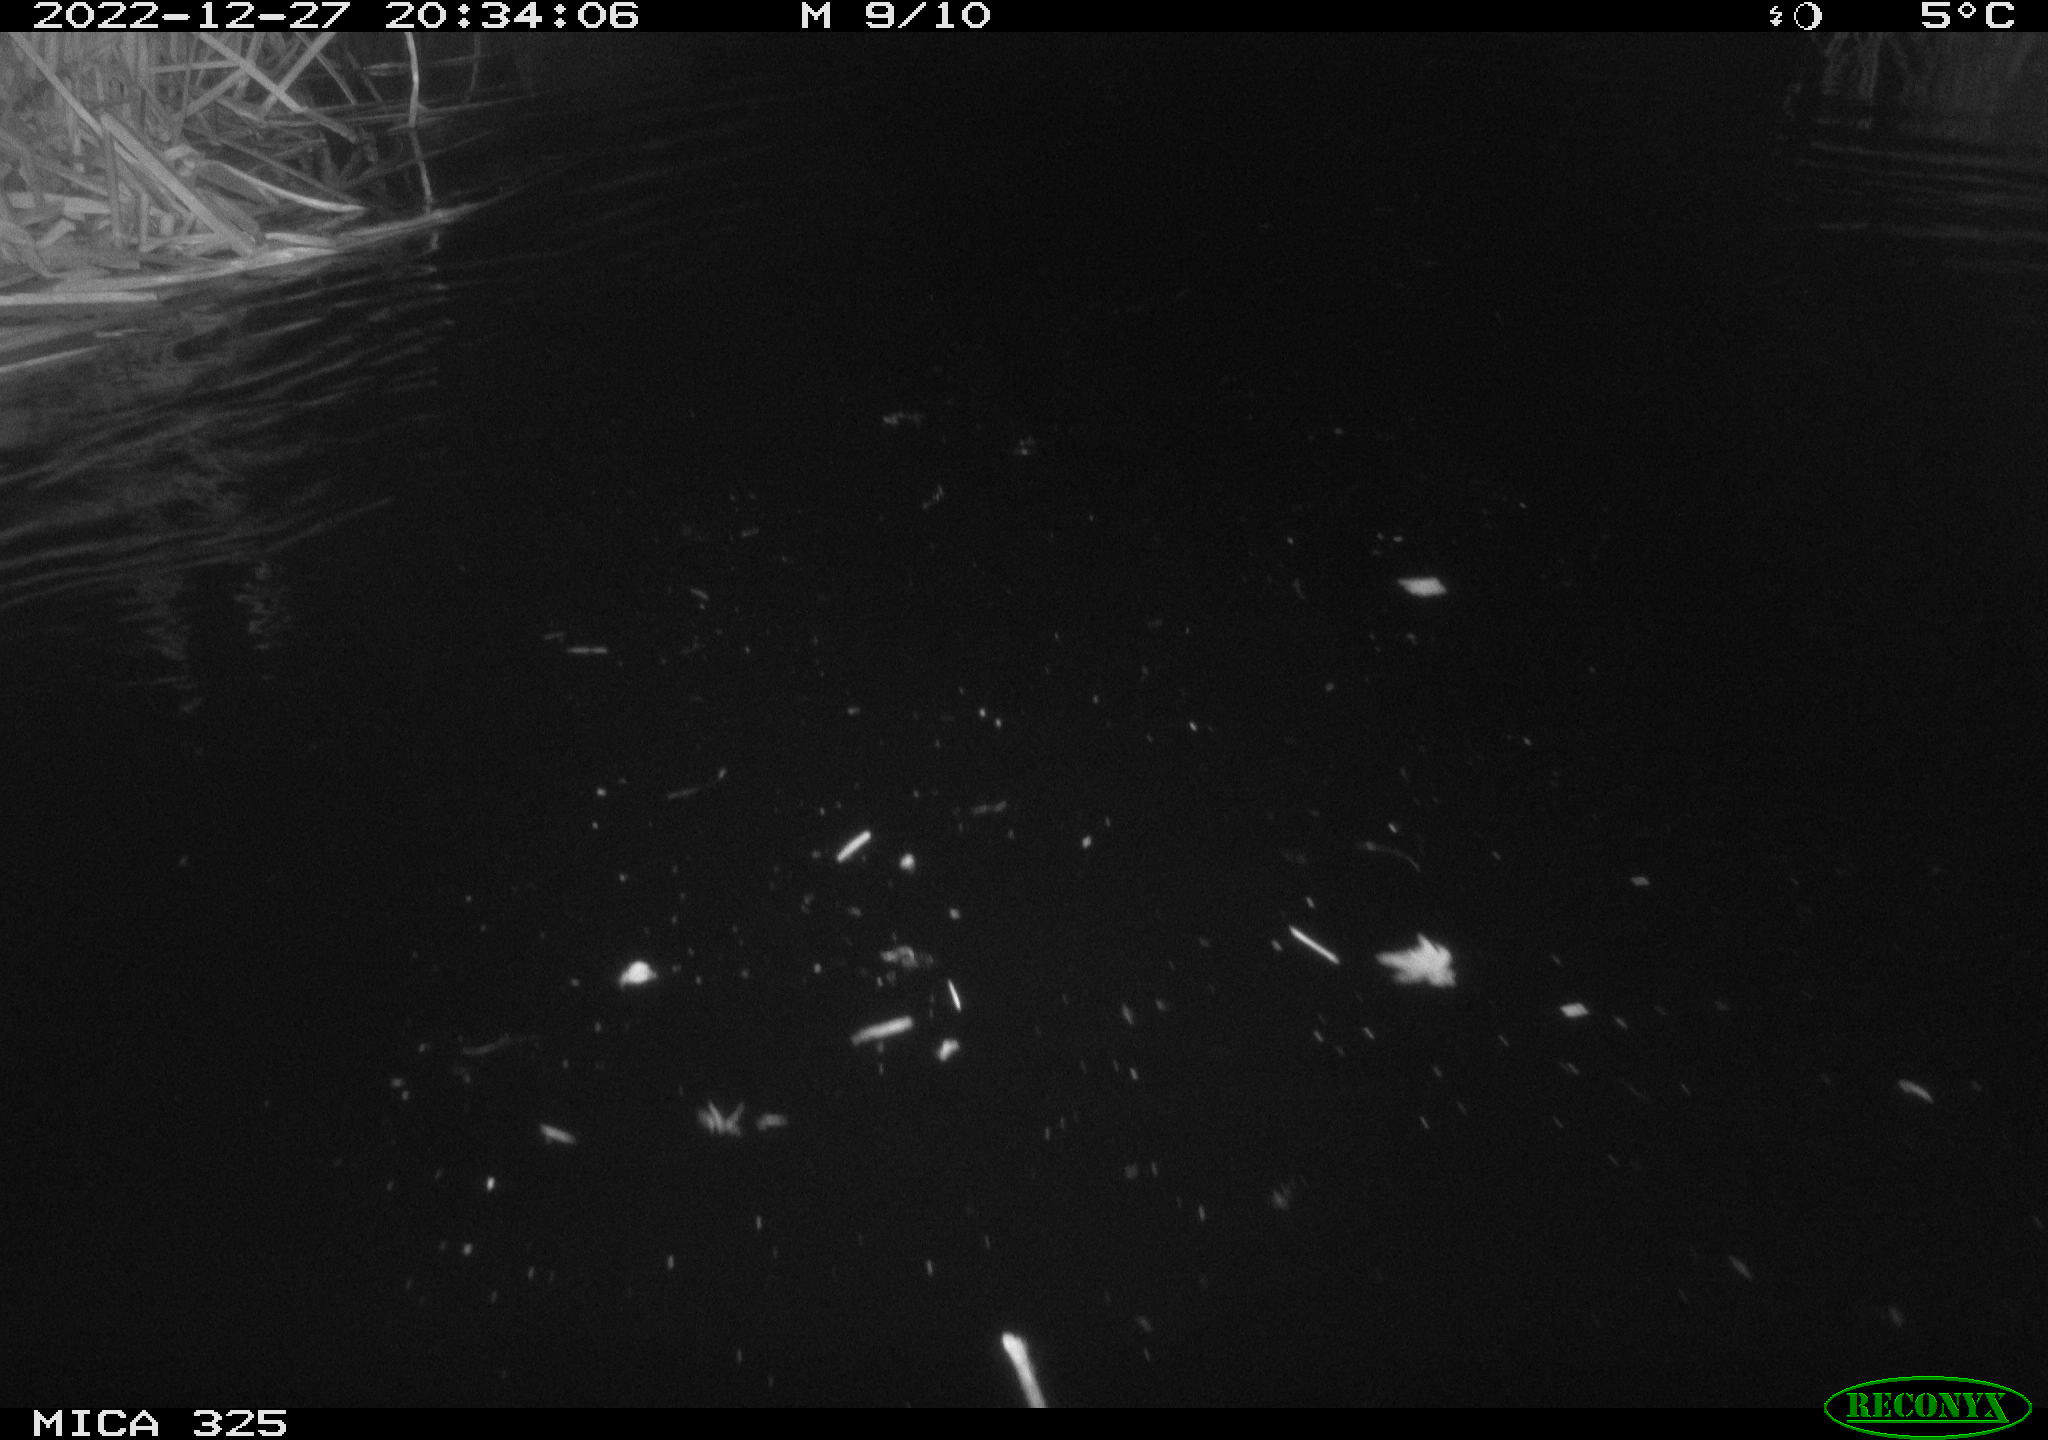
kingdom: Animalia
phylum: Chordata
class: Mammalia
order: Rodentia
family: Cricetidae
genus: Ondatra
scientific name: Ondatra zibethicus
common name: Muskrat
